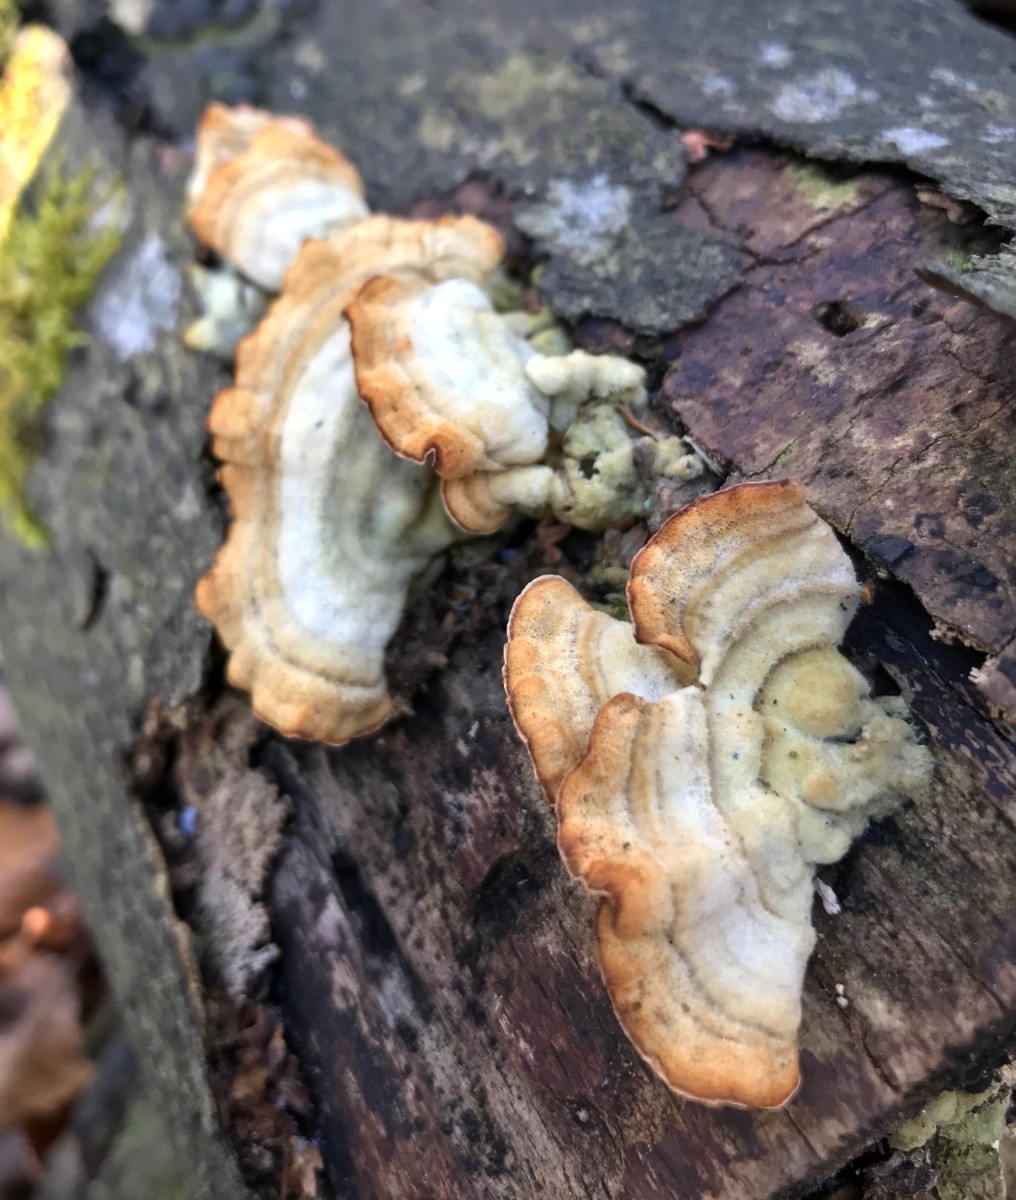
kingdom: Fungi
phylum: Basidiomycota
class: Agaricomycetes
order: Russulales
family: Stereaceae
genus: Stereum
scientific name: Stereum subtomentosum
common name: smuk lædersvamp
